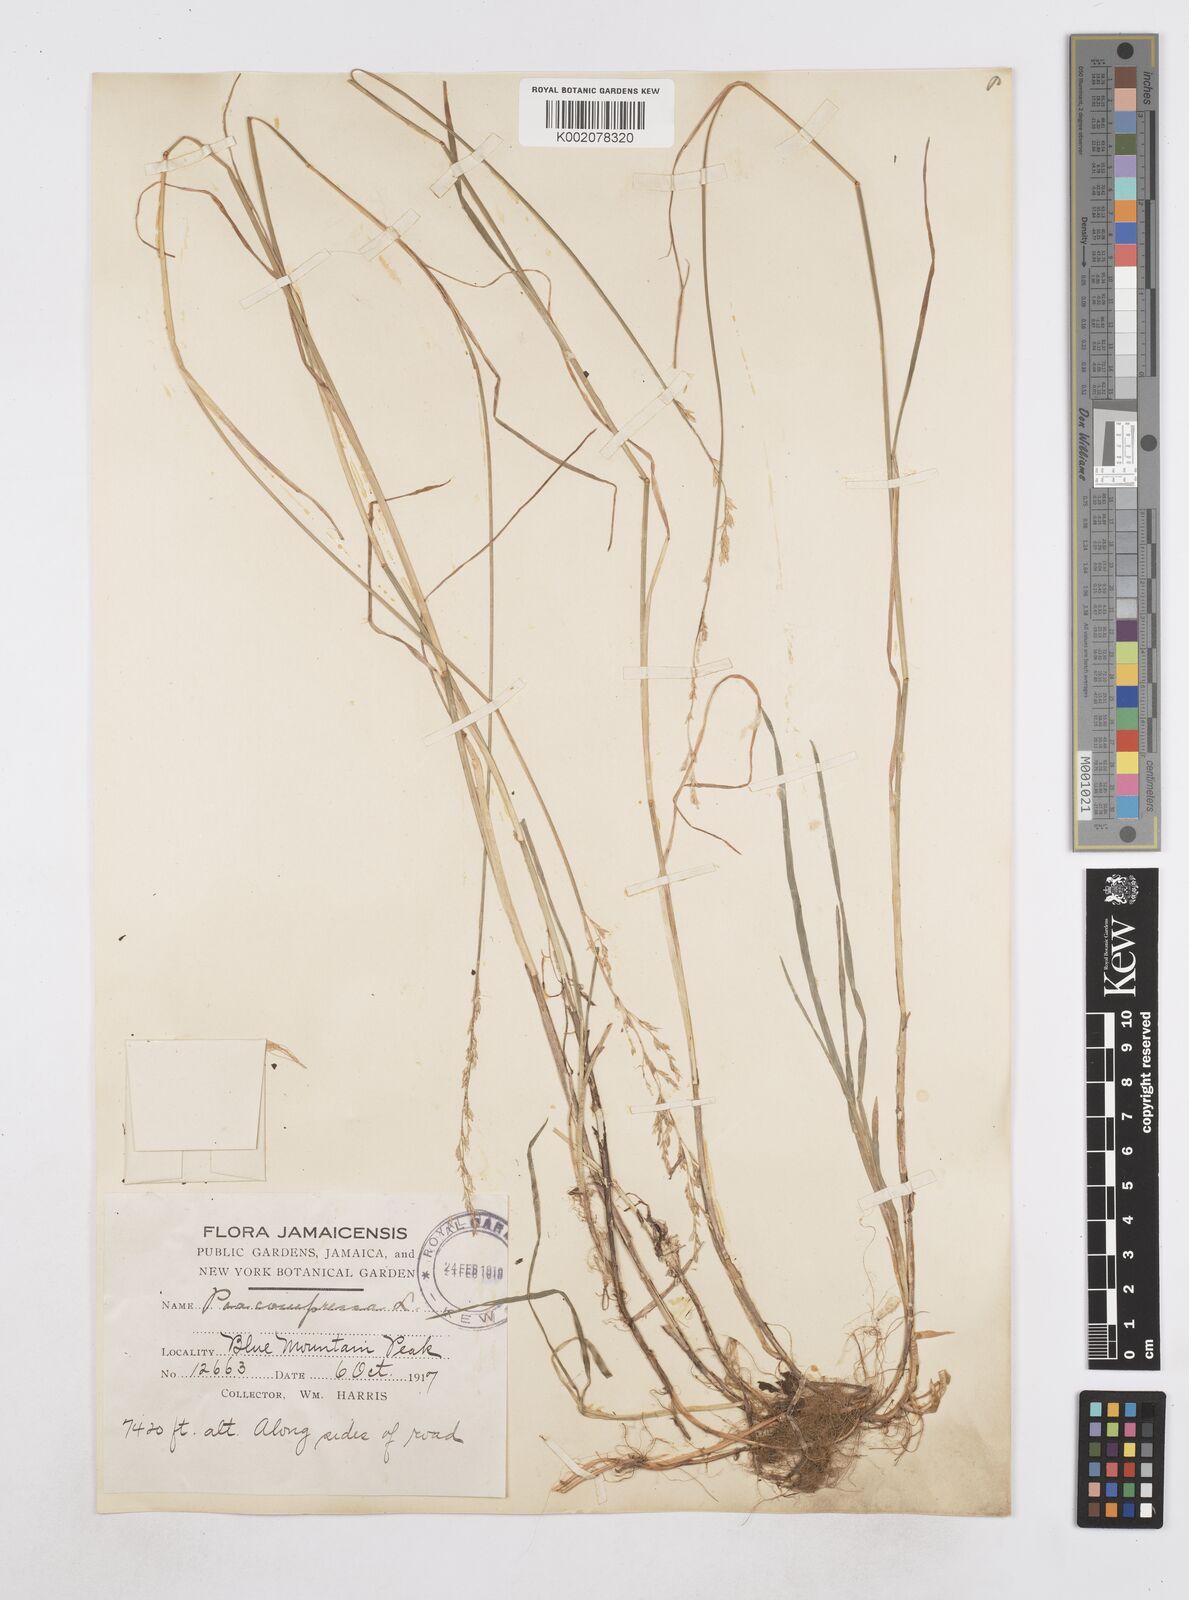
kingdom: Plantae
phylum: Tracheophyta
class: Liliopsida
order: Poales
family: Poaceae
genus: Poa
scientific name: Poa compressa
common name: Canada bluegrass
